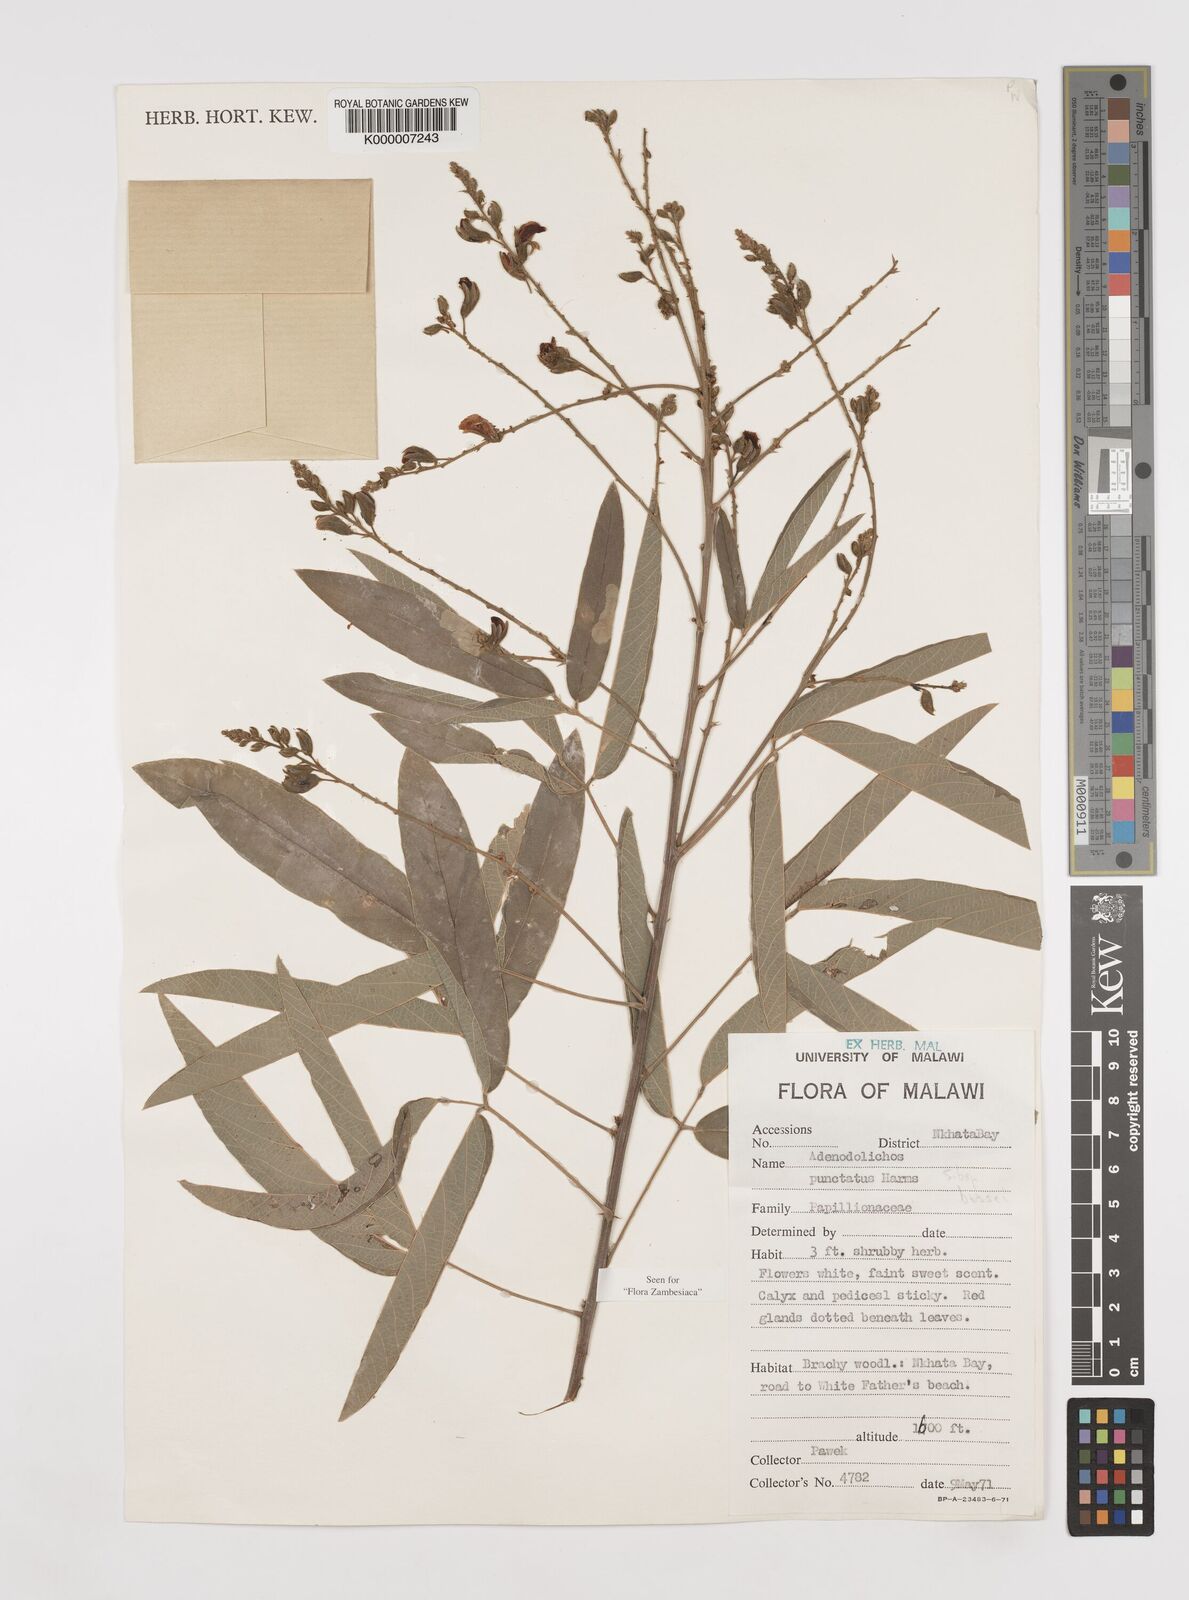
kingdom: Plantae
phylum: Tracheophyta
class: Magnoliopsida
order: Fabales
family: Fabaceae
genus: Adenodolichos
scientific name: Adenodolichos punctatus
